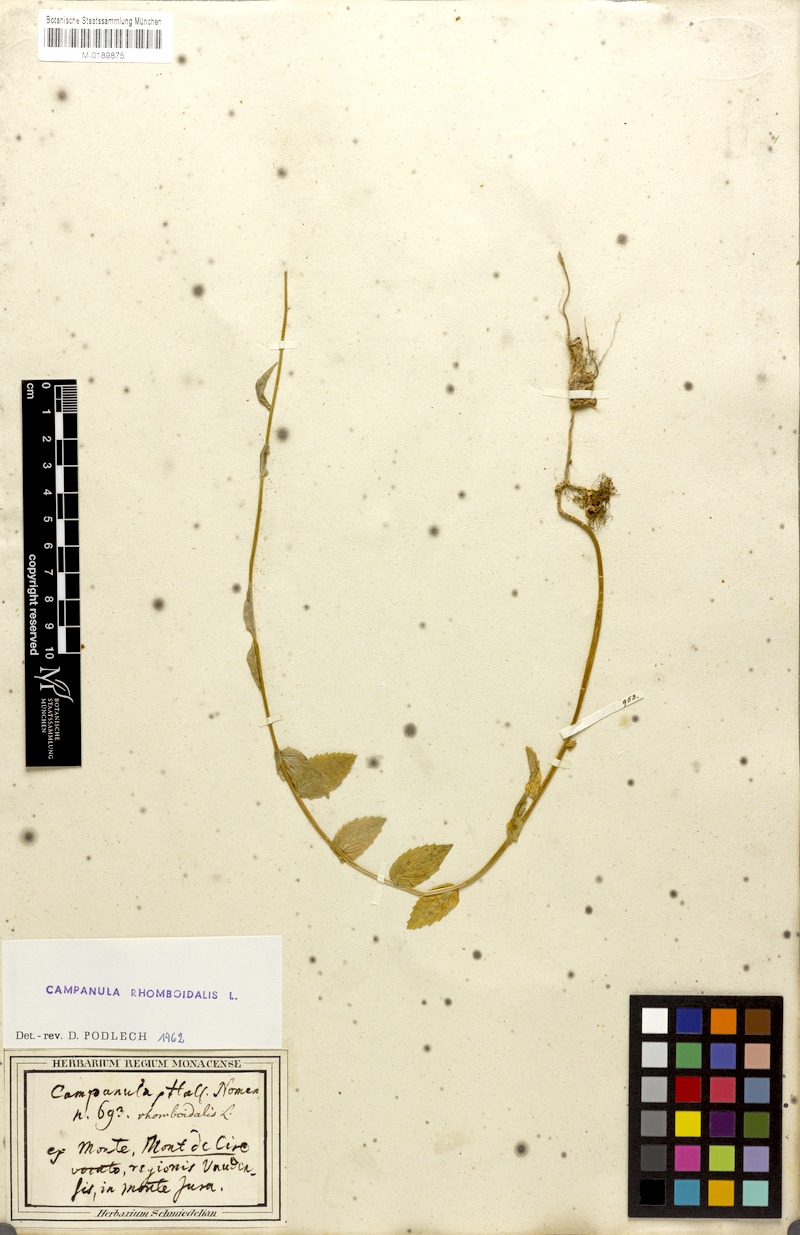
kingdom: Plantae
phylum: Tracheophyta
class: Magnoliopsida
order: Asterales
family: Campanulaceae
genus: Campanula
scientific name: Campanula rhomboidalis
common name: Broad-leaved harebell
